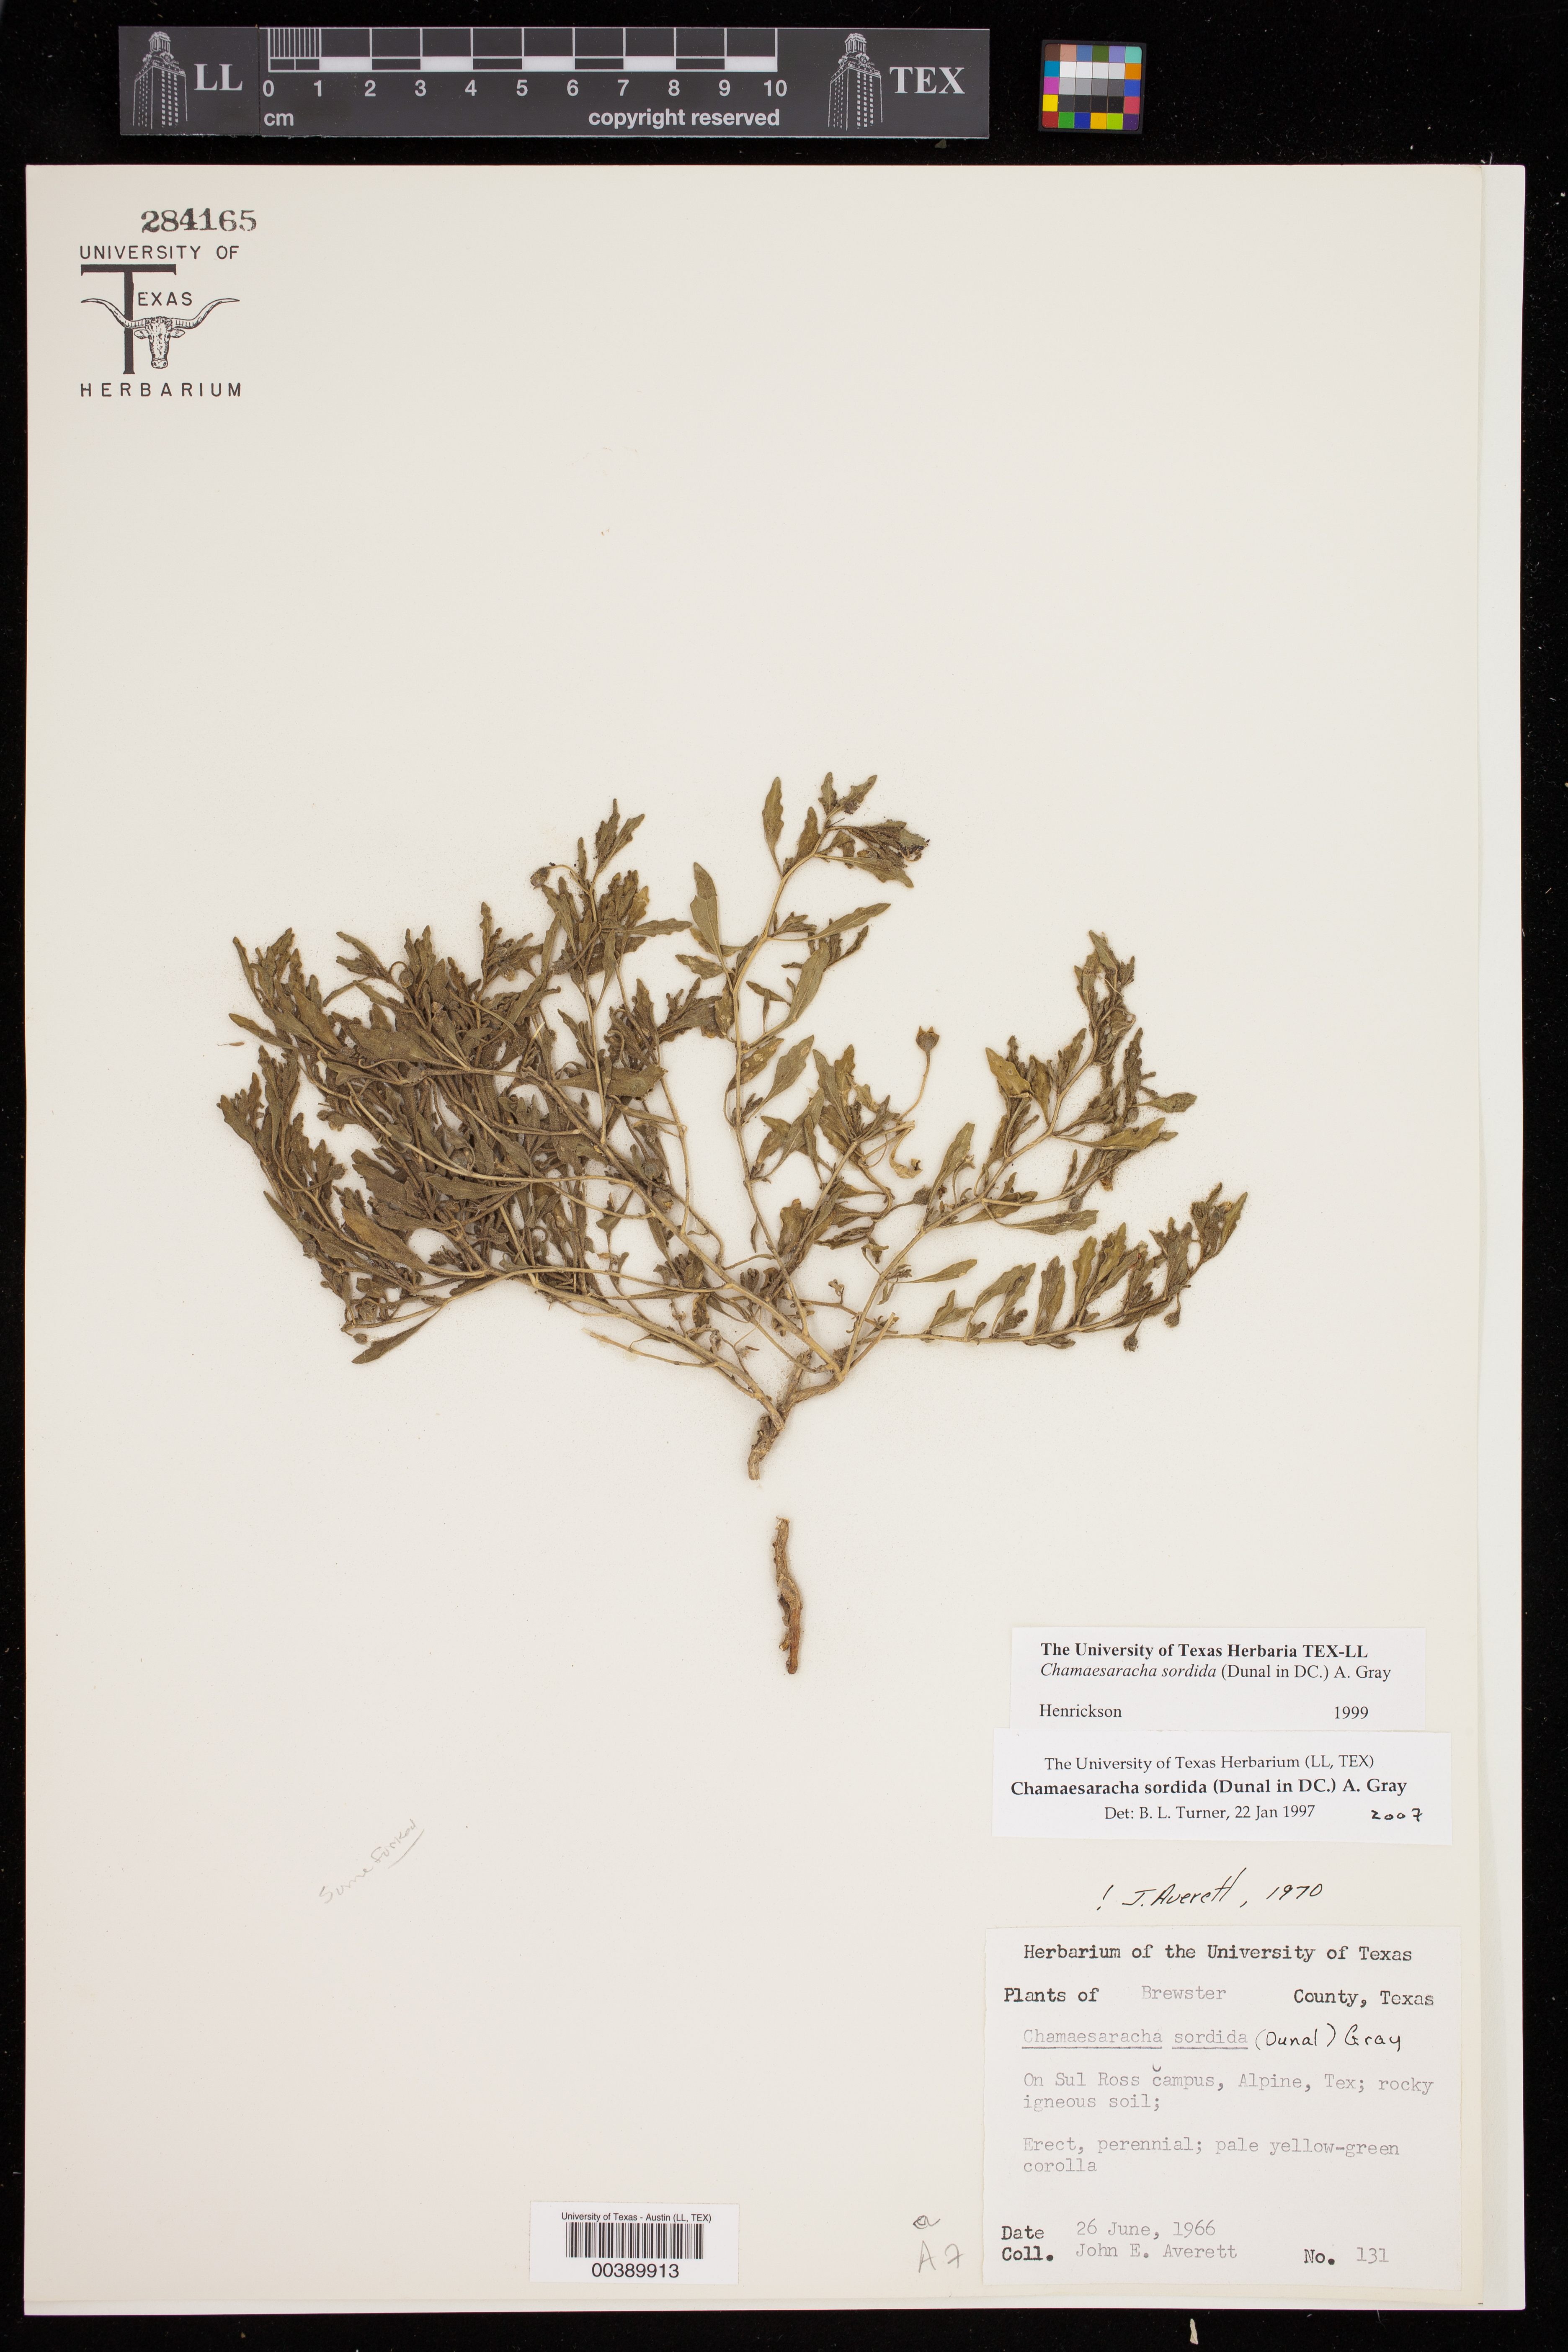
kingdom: Plantae
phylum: Tracheophyta
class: Magnoliopsida
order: Solanales
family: Solanaceae
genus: Chamaesaracha
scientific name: Chamaesaracha sordida
